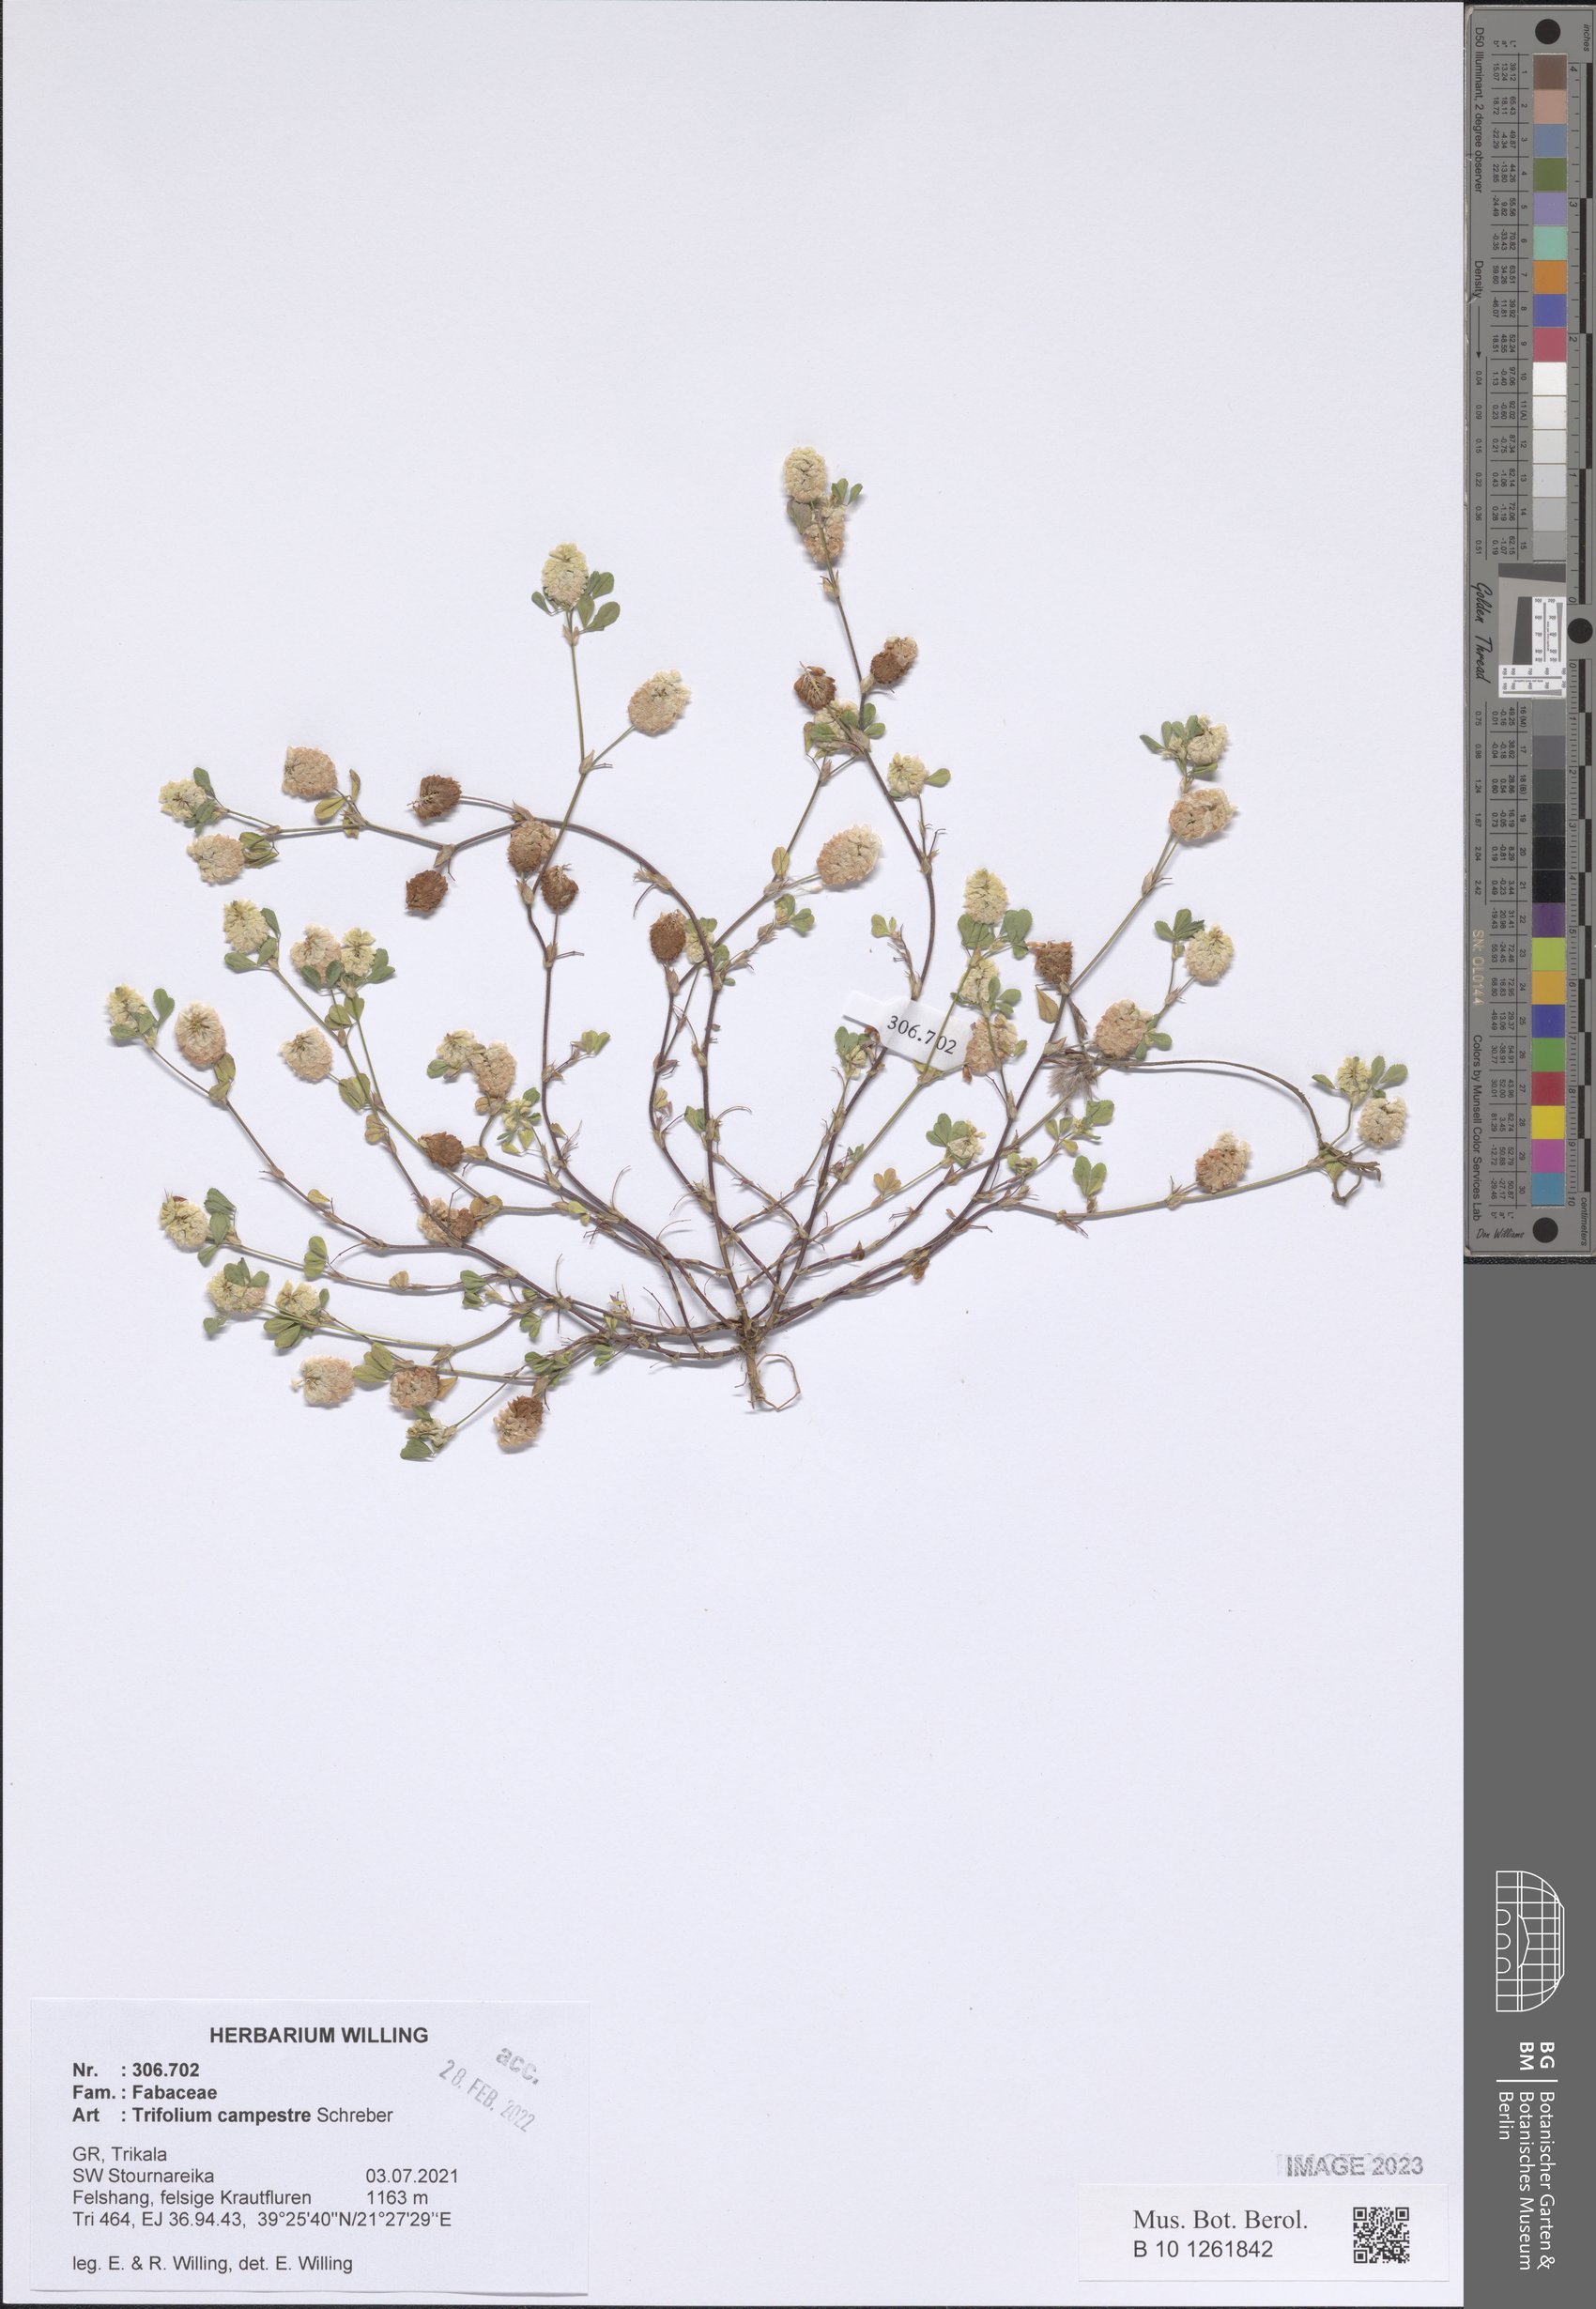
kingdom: Plantae
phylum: Tracheophyta
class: Magnoliopsida
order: Fabales
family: Fabaceae
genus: Trifolium
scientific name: Trifolium campestre
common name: Field clover
